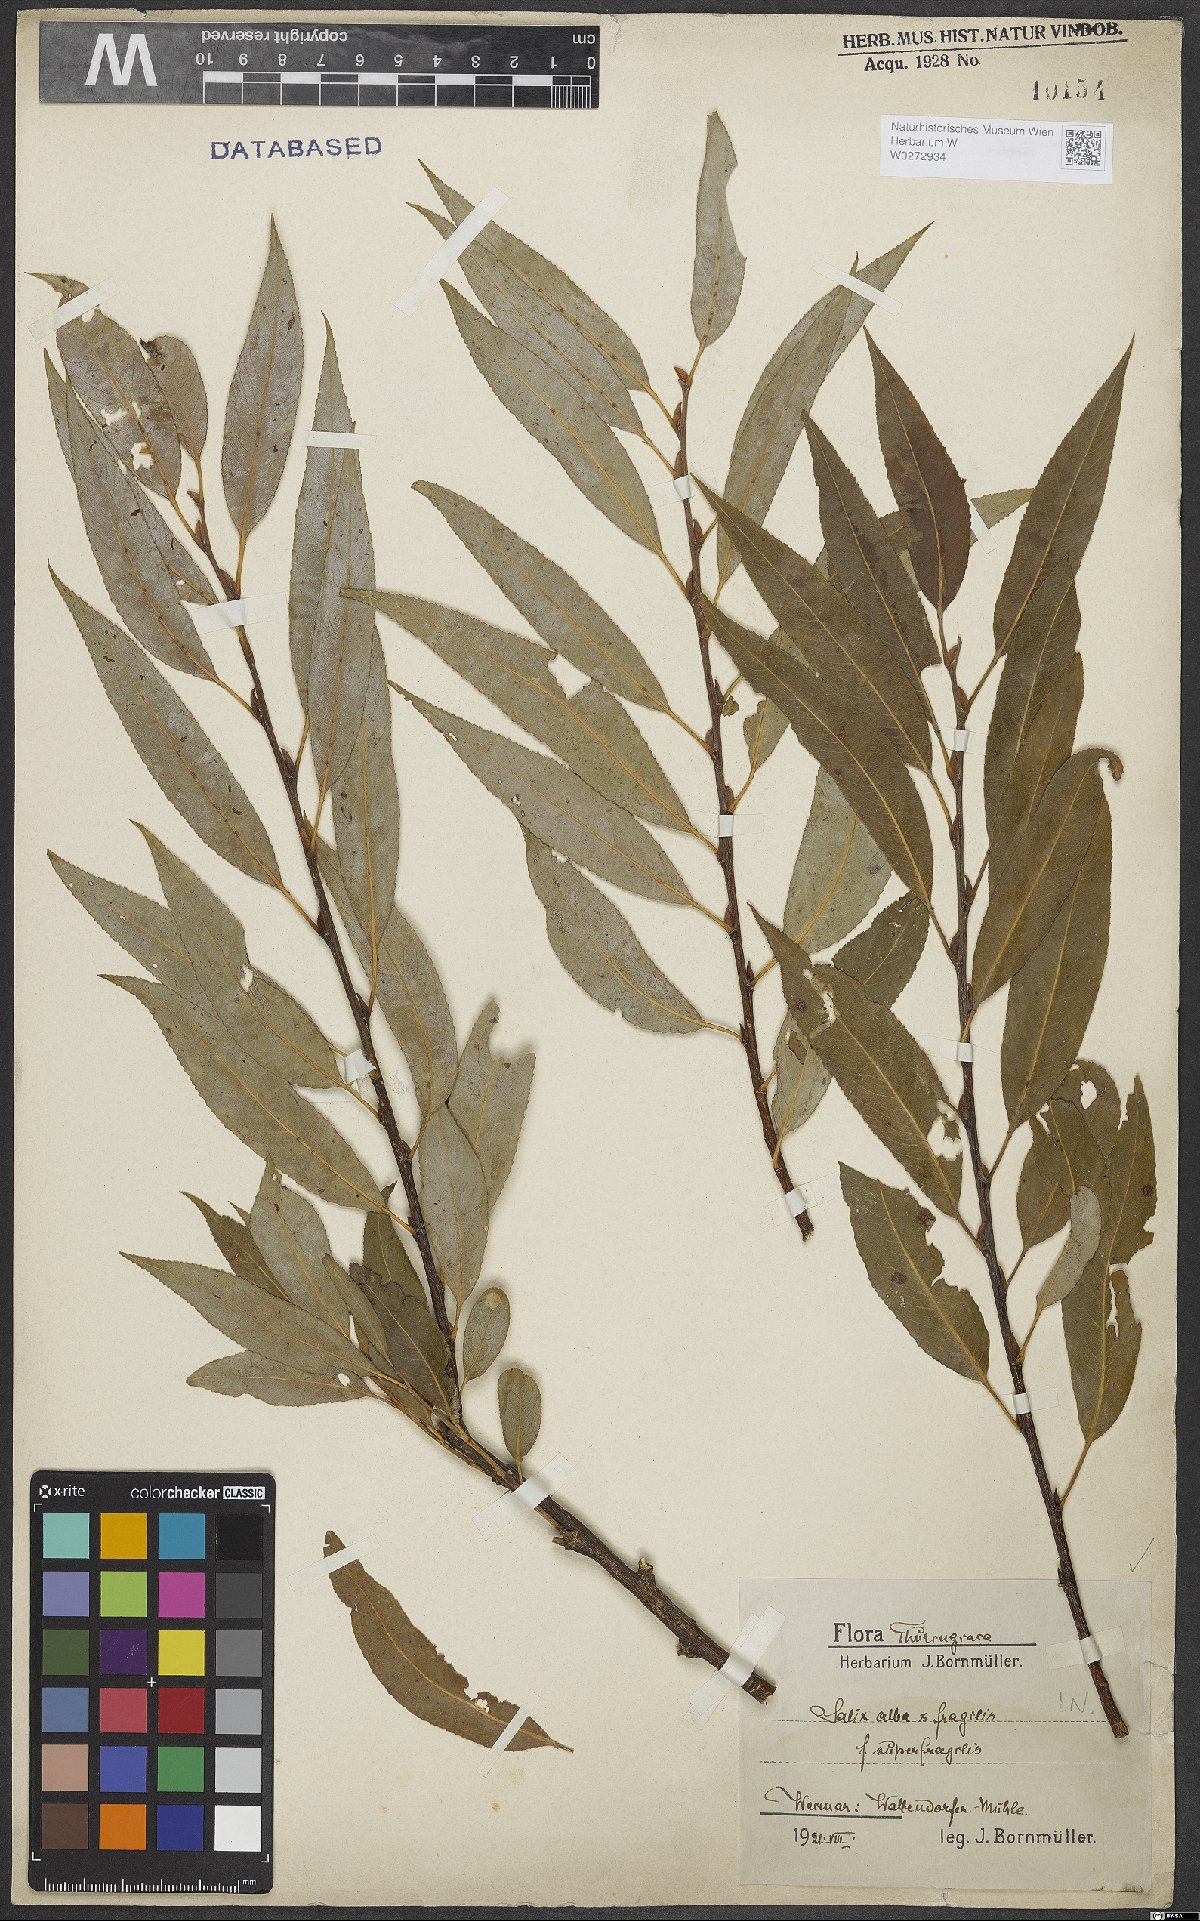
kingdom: Plantae
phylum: Tracheophyta
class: Magnoliopsida
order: Malpighiales
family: Salicaceae
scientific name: Salicaceae
